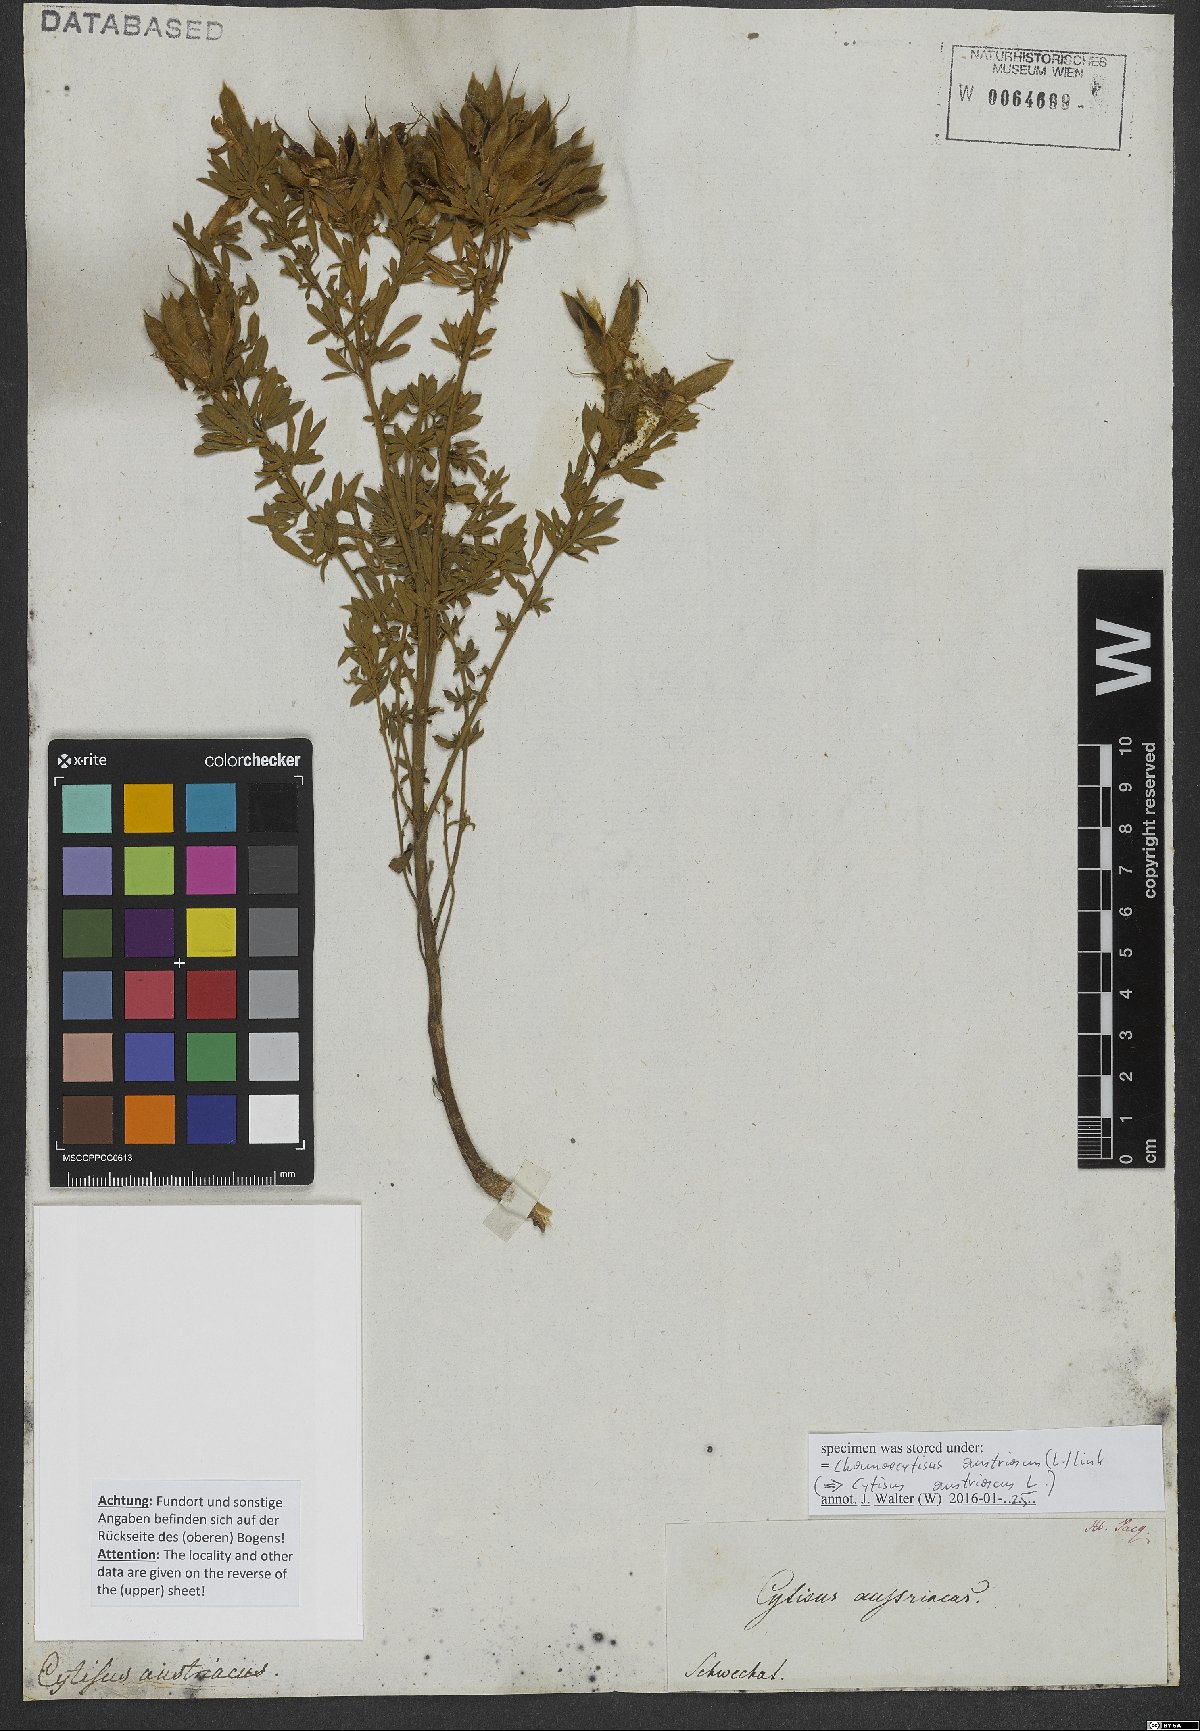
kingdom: Plantae
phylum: Tracheophyta
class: Magnoliopsida
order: Fabales
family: Fabaceae
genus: Chamaecytisus
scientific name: Chamaecytisus austriacus
